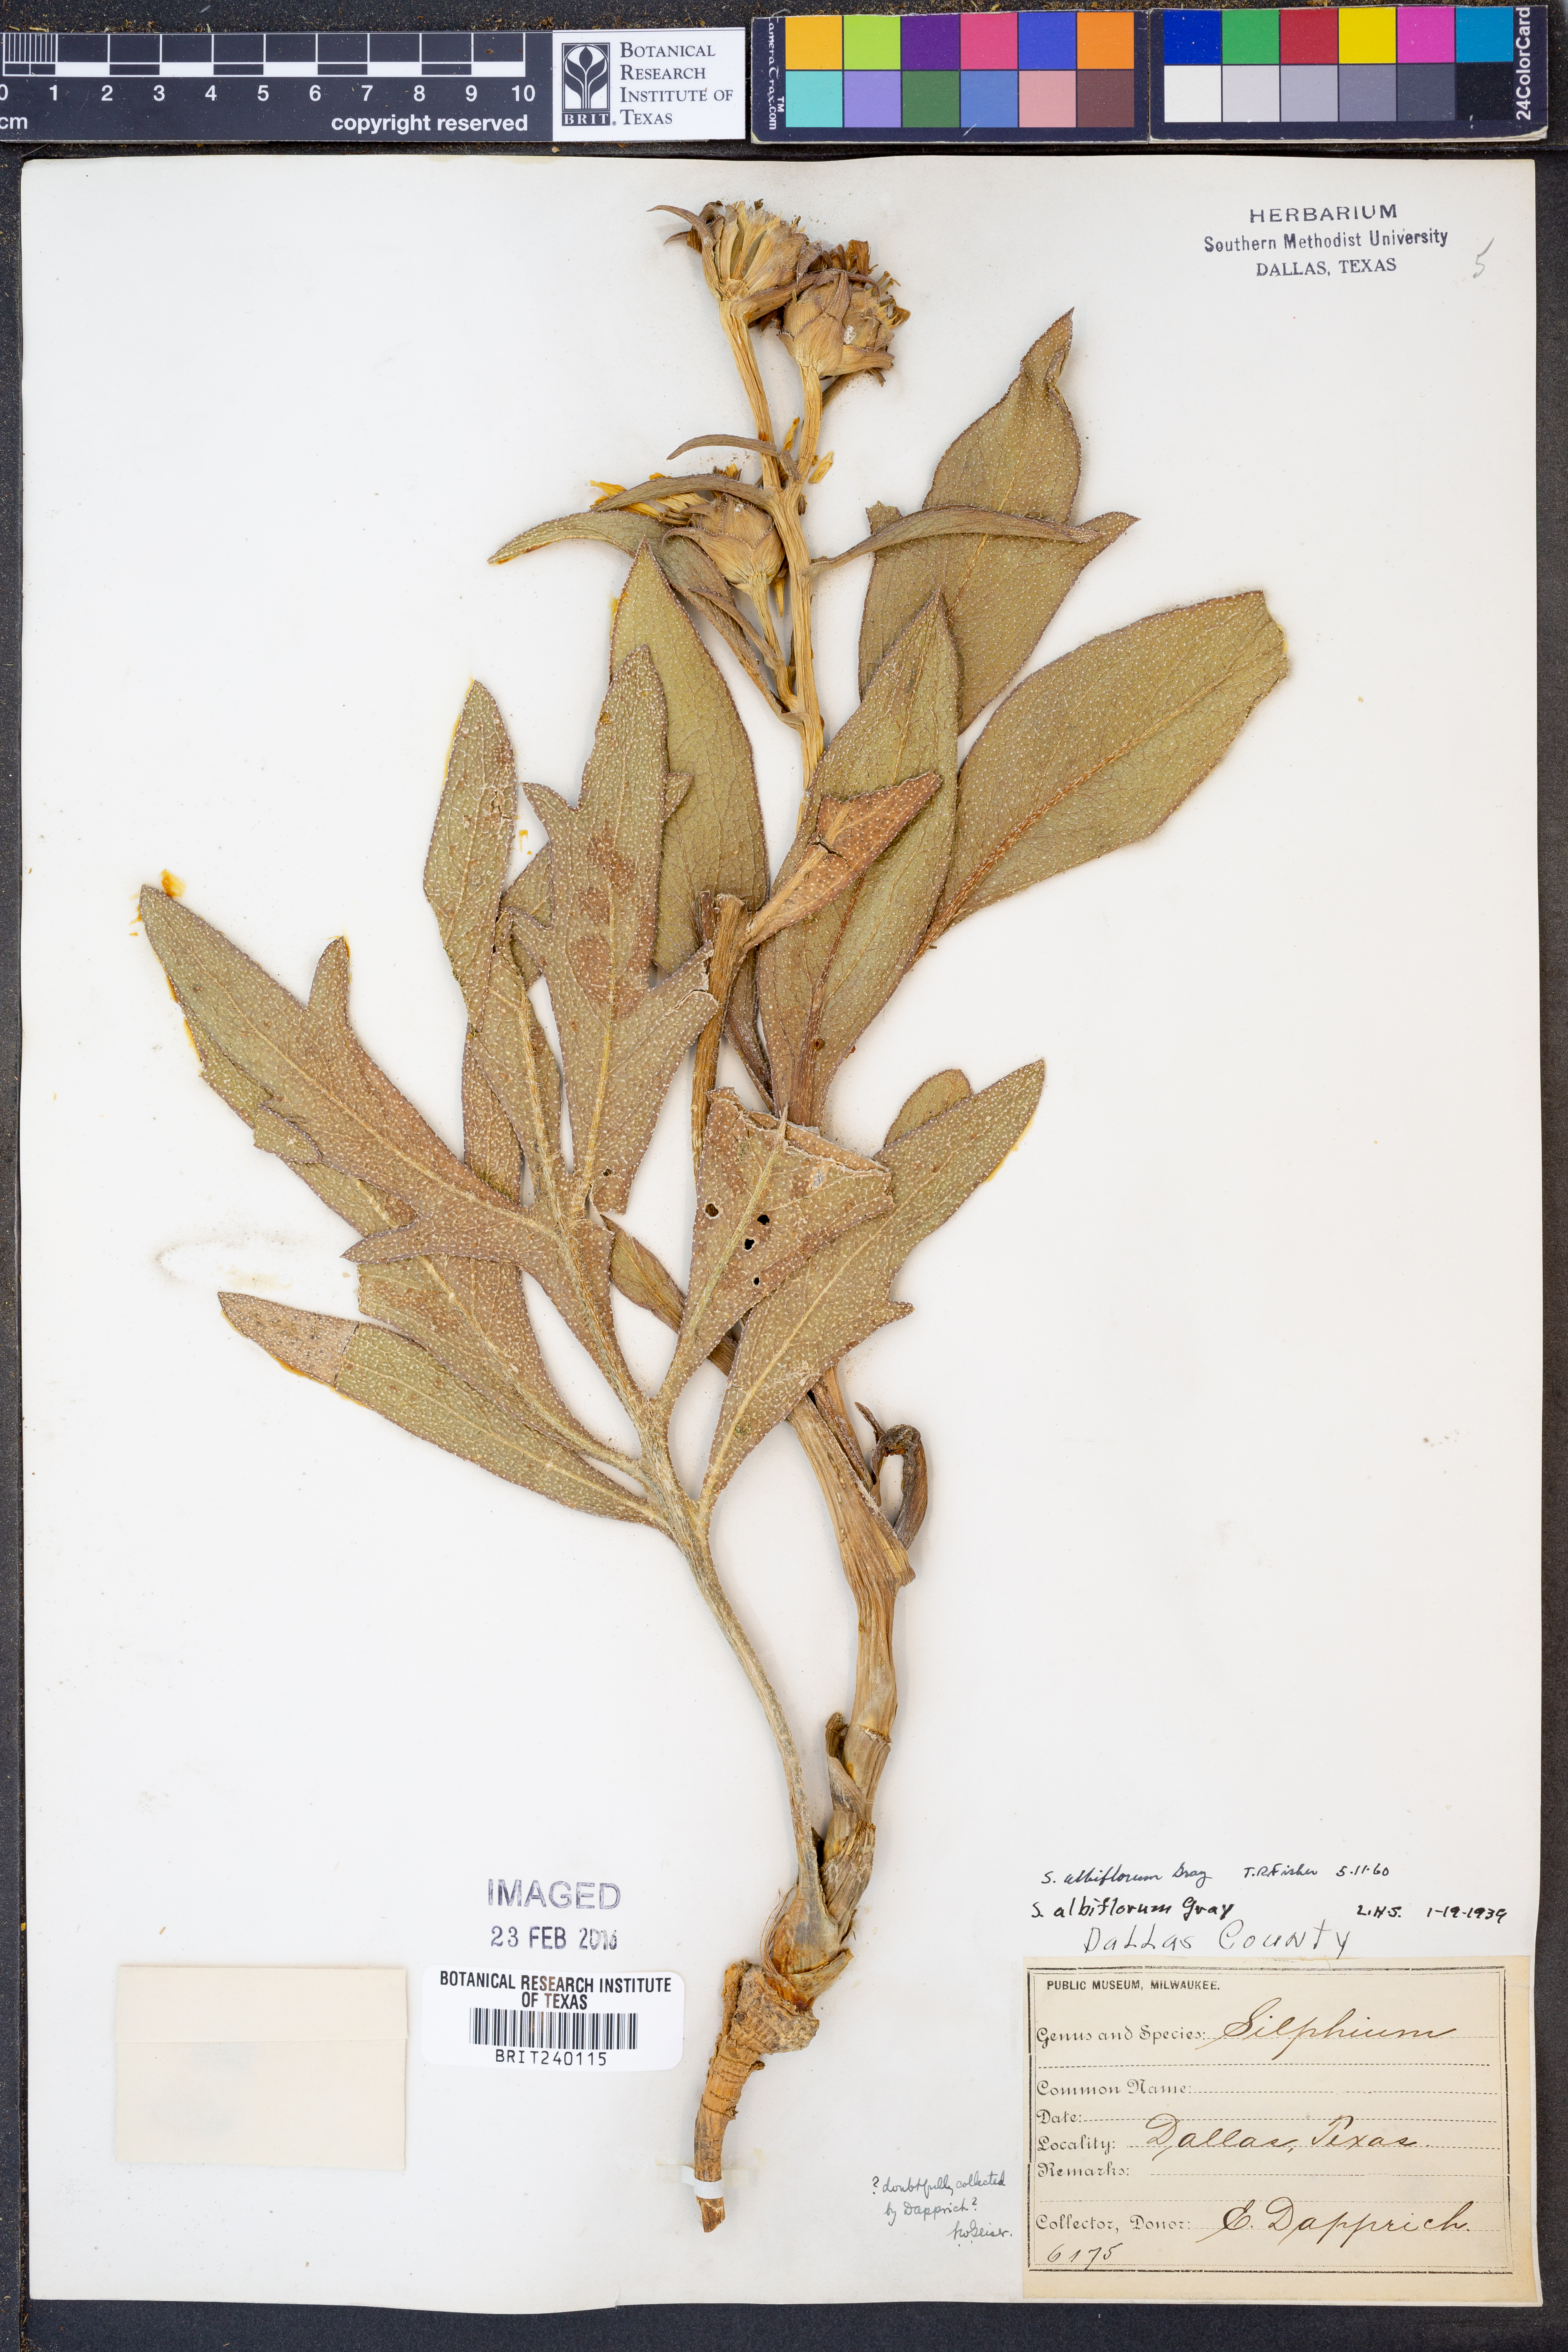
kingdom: Plantae
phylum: Tracheophyta
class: Magnoliopsida
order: Asterales
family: Asteraceae
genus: Silphium
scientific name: Silphium albiflorum
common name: White rosinweed
